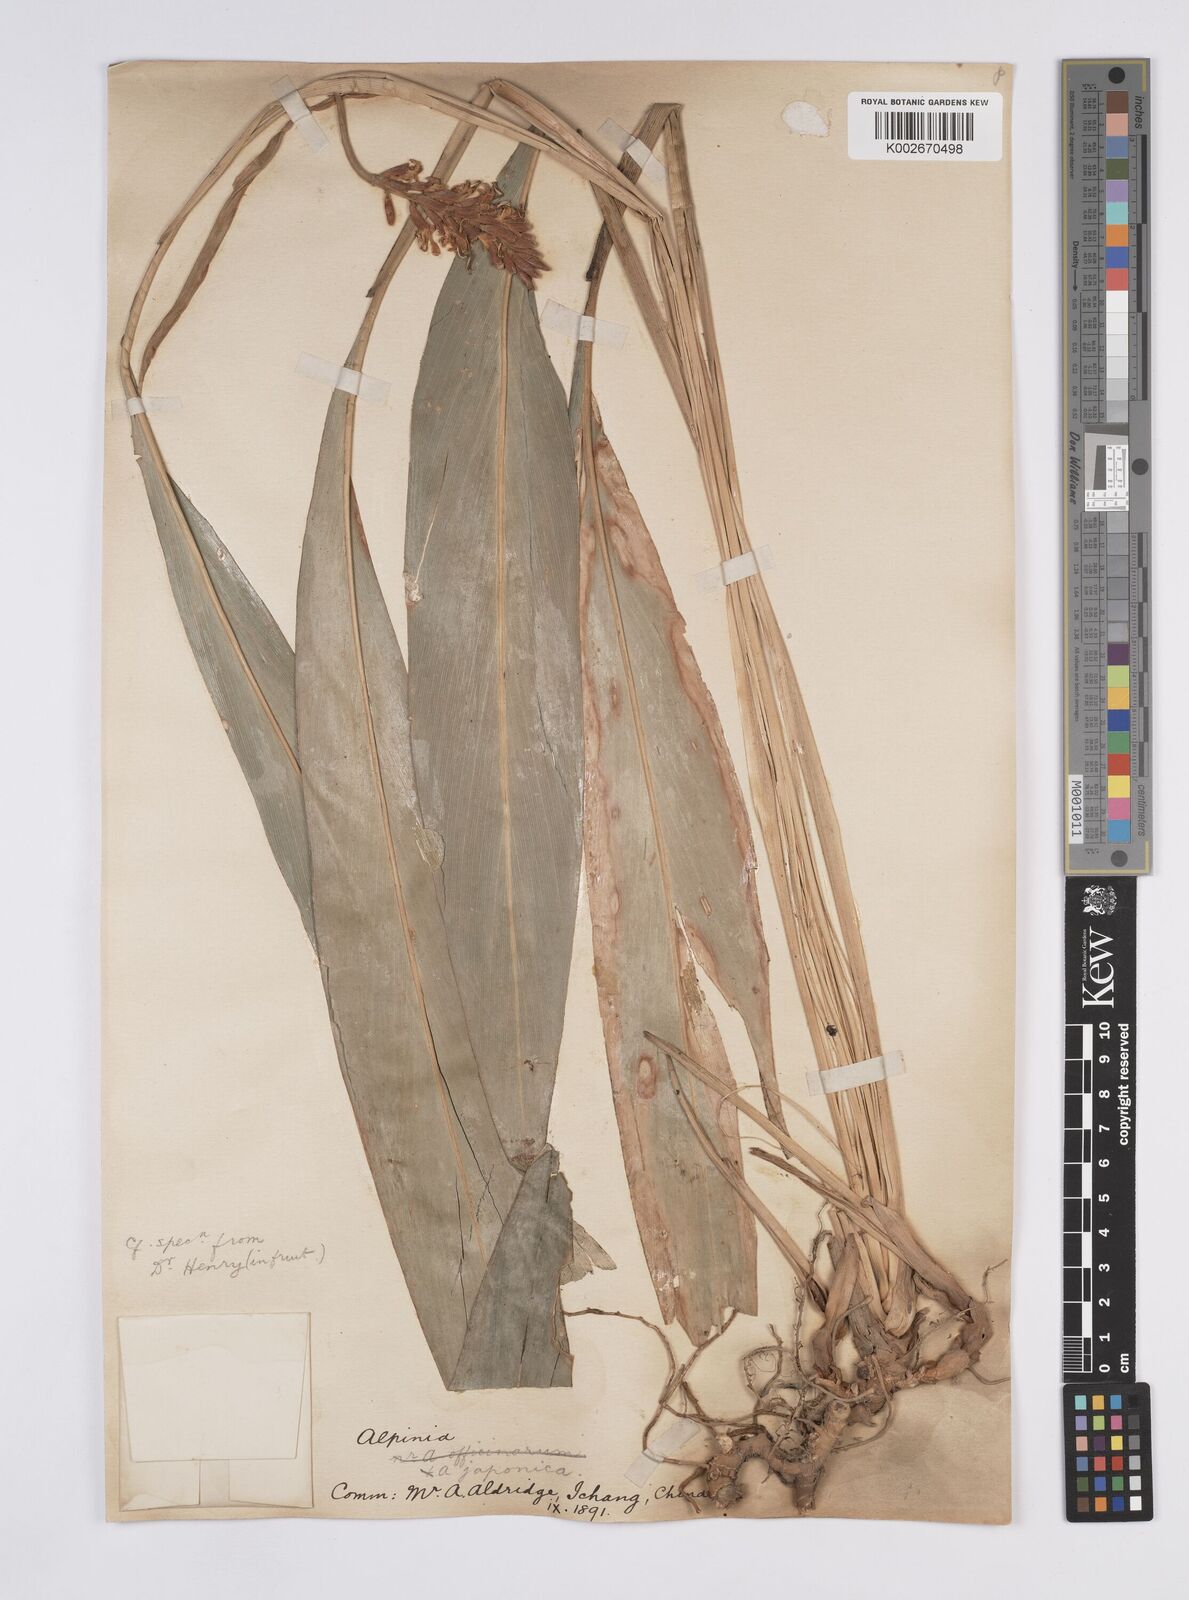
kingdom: Plantae
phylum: Tracheophyta
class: Liliopsida
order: Zingiberales
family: Zingiberaceae
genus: Alpinia
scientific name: Alpinia japonica
